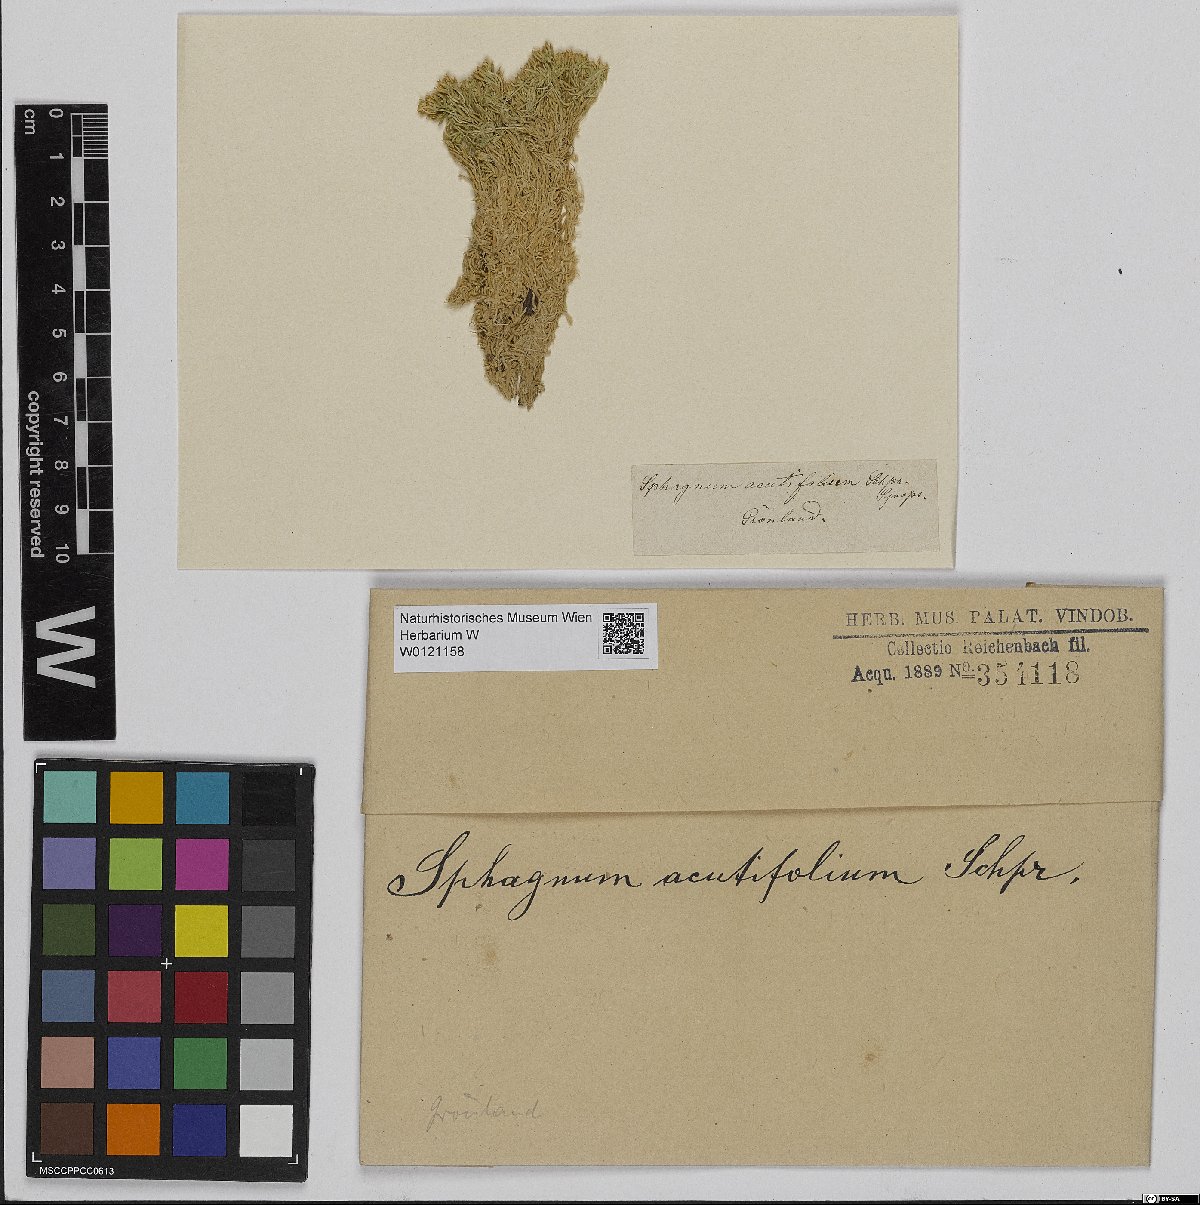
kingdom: Plantae
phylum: Bryophyta
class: Sphagnopsida
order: Sphagnales
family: Sphagnaceae
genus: Sphagnum
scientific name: Sphagnum capillifolium
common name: Small red peat moss
